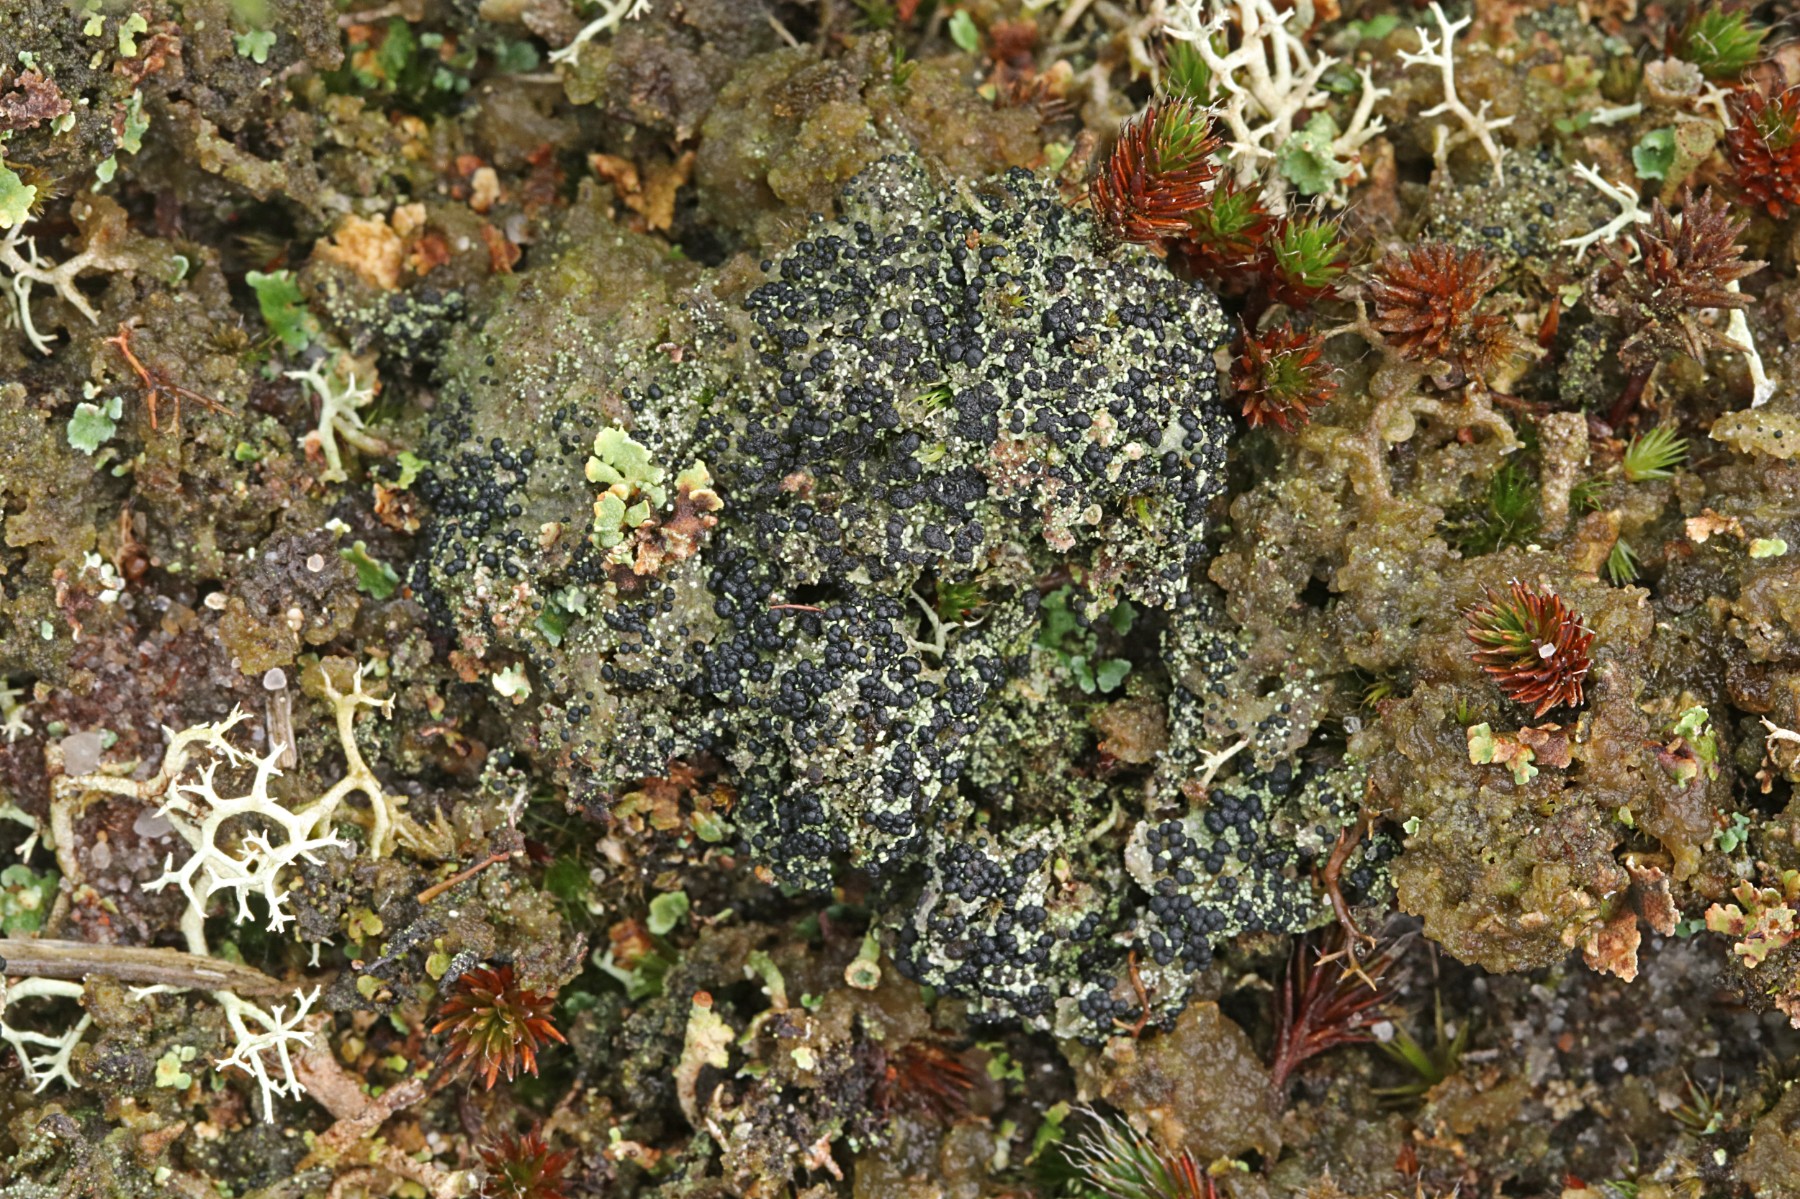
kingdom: Fungi
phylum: Ascomycota
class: Lecanoromycetes
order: Lecanorales
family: Byssolomataceae
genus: Micarea
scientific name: Micarea lignaria
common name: tørve-knaplav
